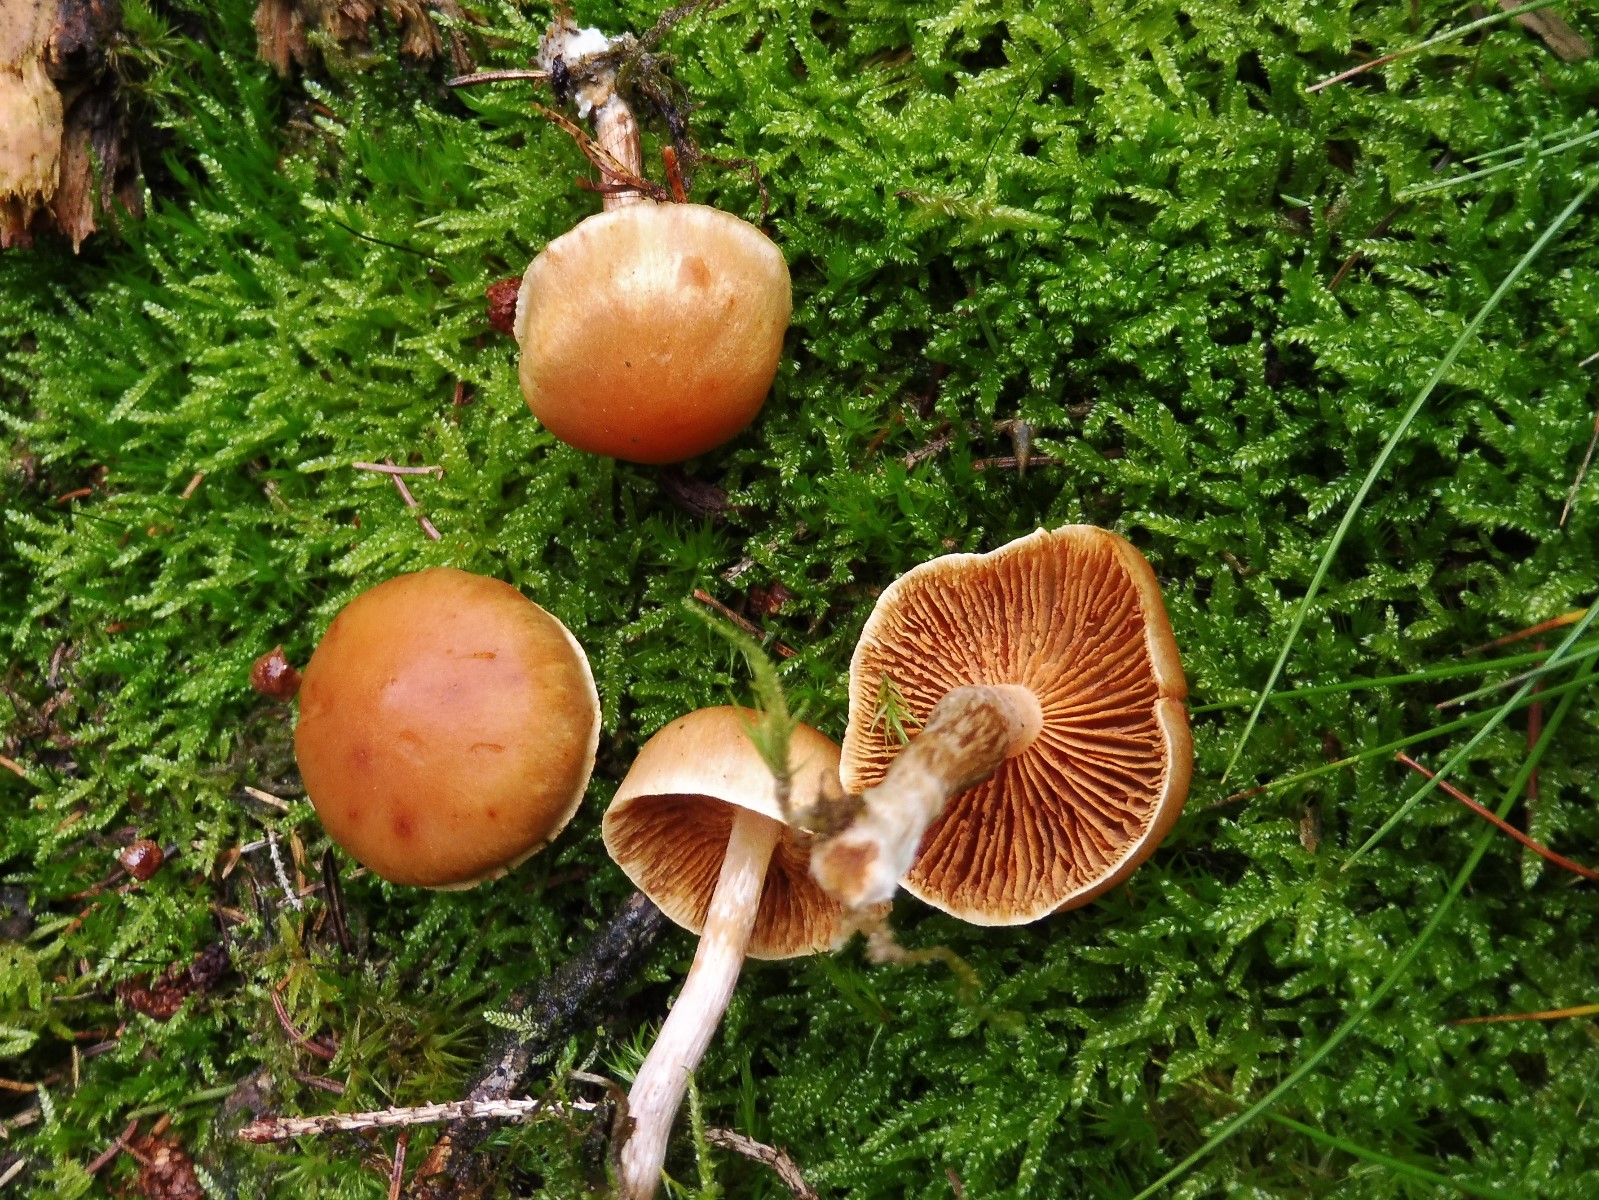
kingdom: Fungi
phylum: Basidiomycota
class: Agaricomycetes
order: Agaricales
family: Hymenogastraceae
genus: Gymnopilus
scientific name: Gymnopilus penetrans
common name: plettet flammehat
